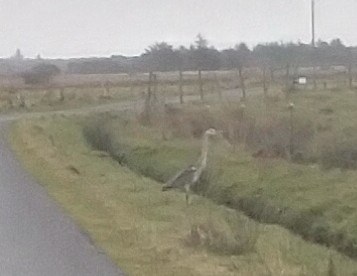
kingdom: Animalia
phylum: Chordata
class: Aves
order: Pelecaniformes
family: Ardeidae
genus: Ardea
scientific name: Ardea cinerea
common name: Fiskehejre
